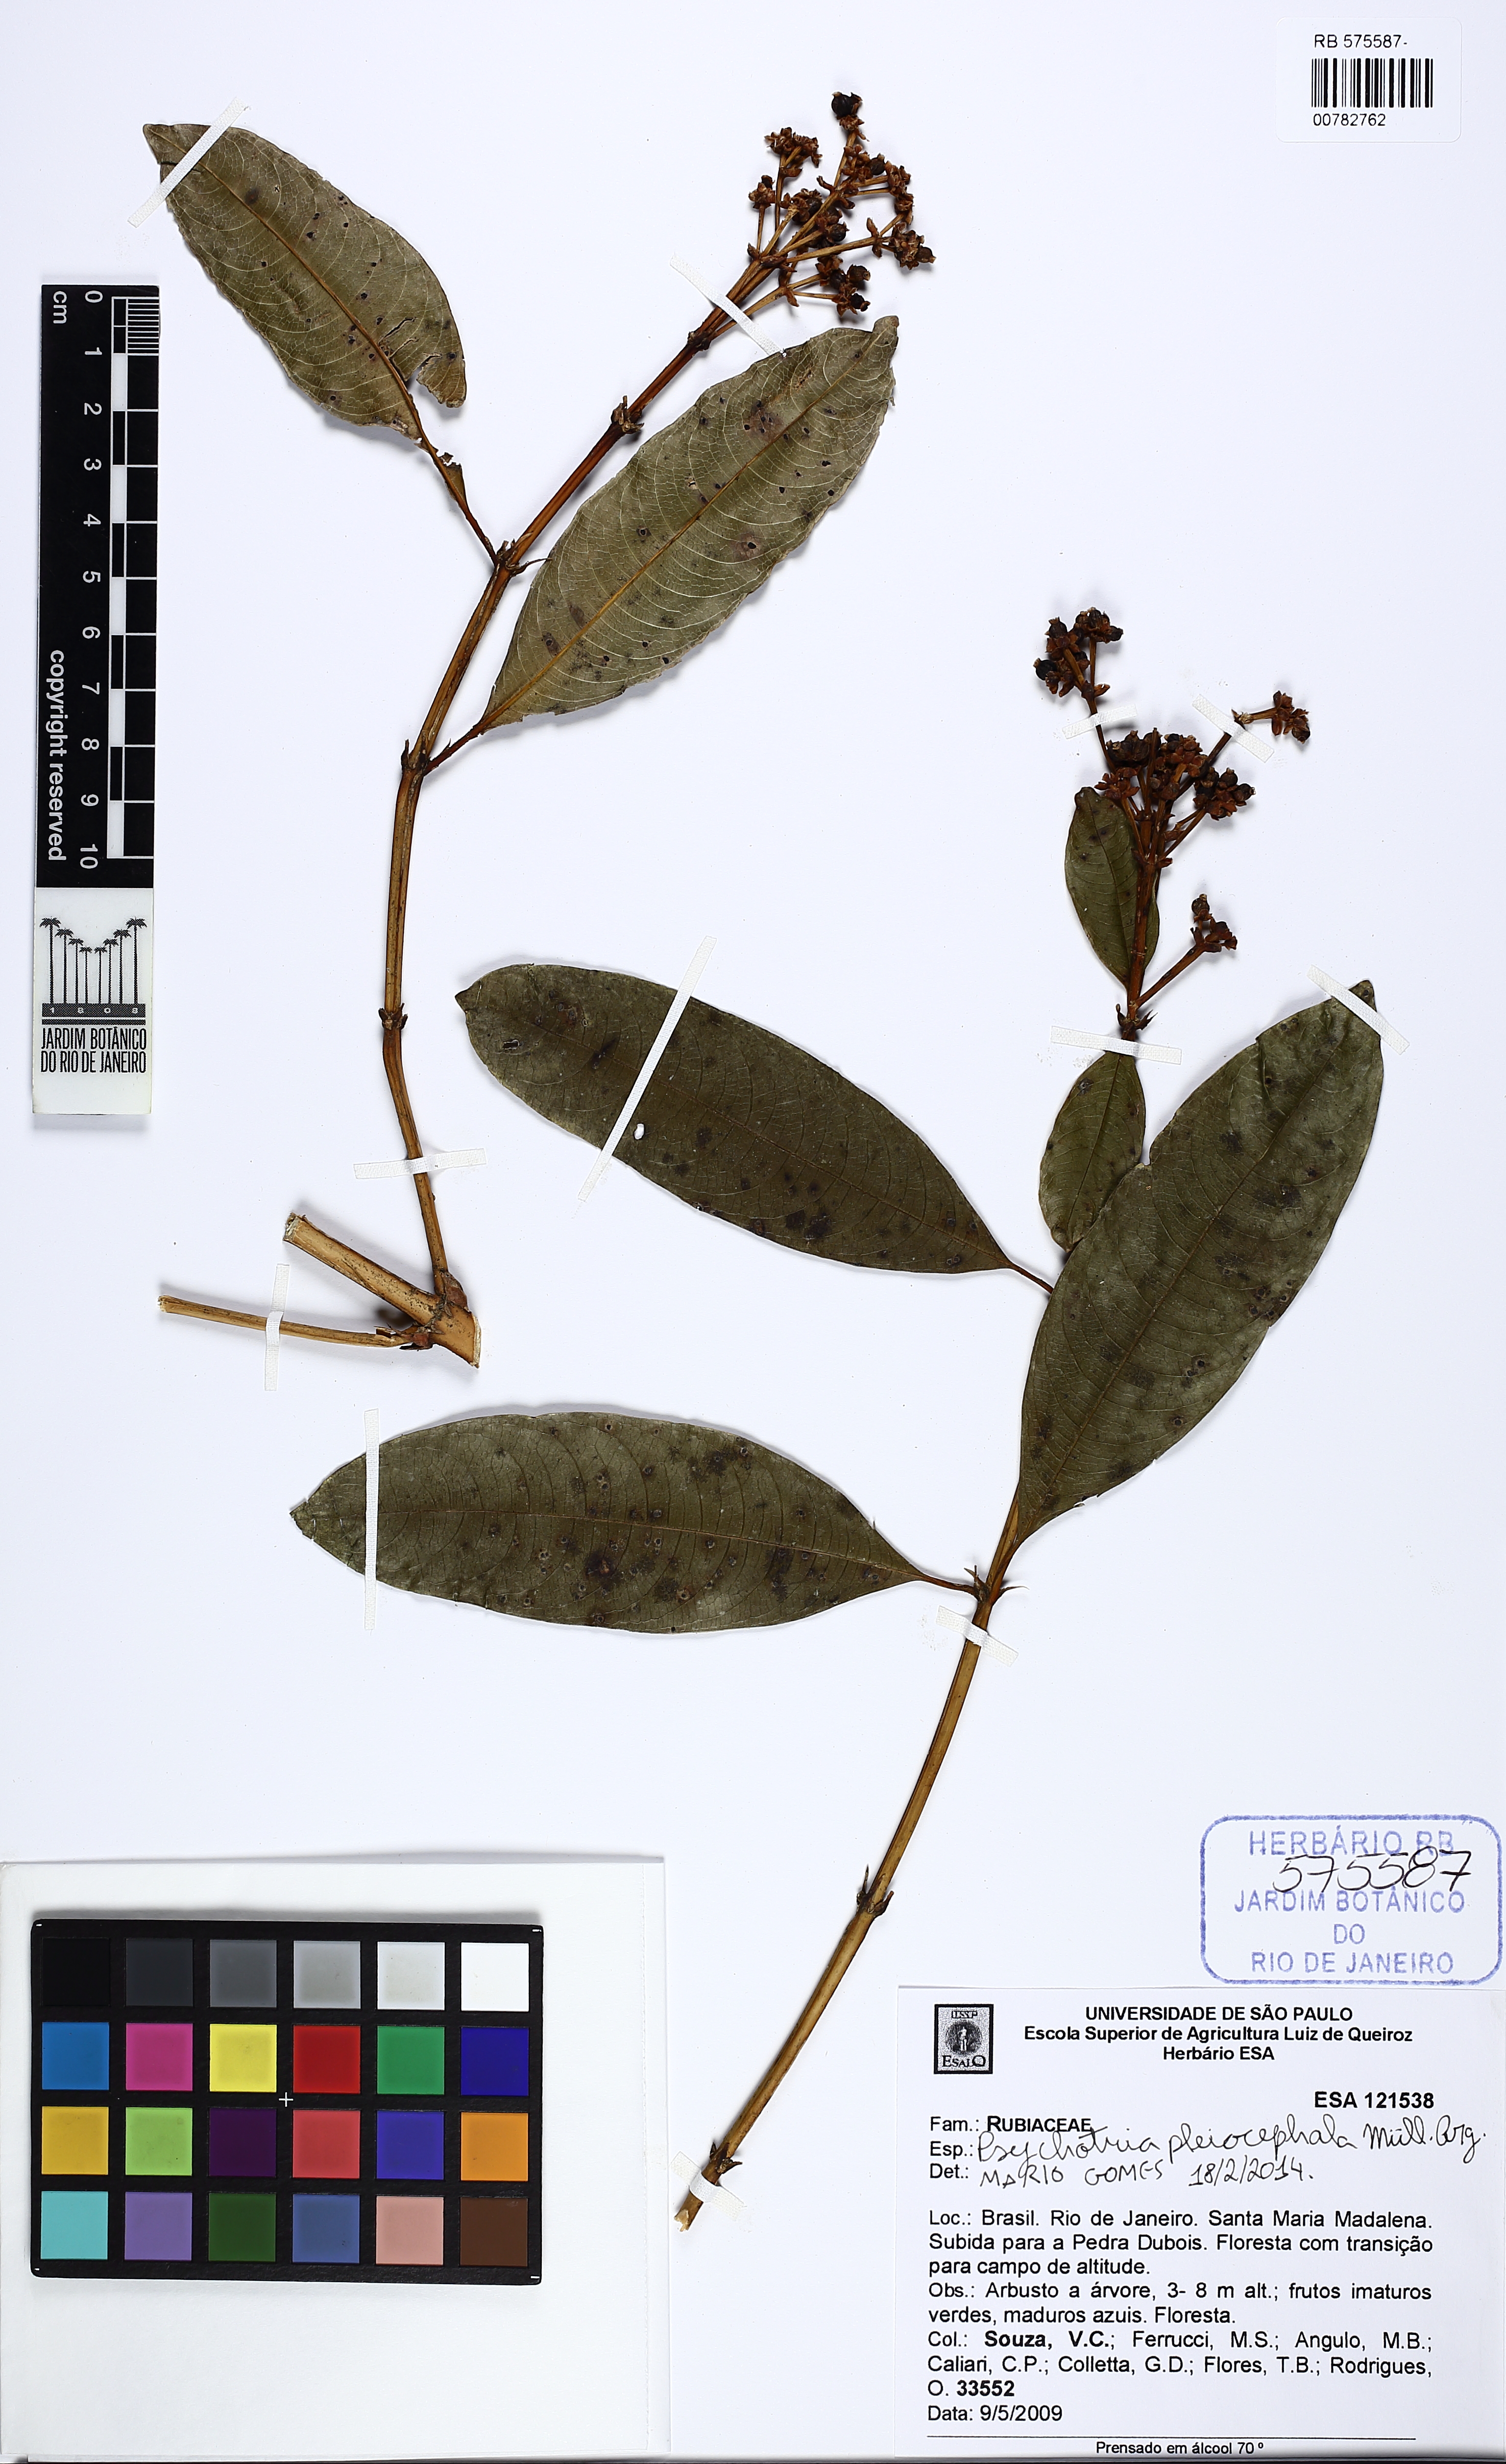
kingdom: Plantae
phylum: Tracheophyta
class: Magnoliopsida
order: Gentianales
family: Rubiaceae
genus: Palicourea
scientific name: Palicourea pleiocephala
